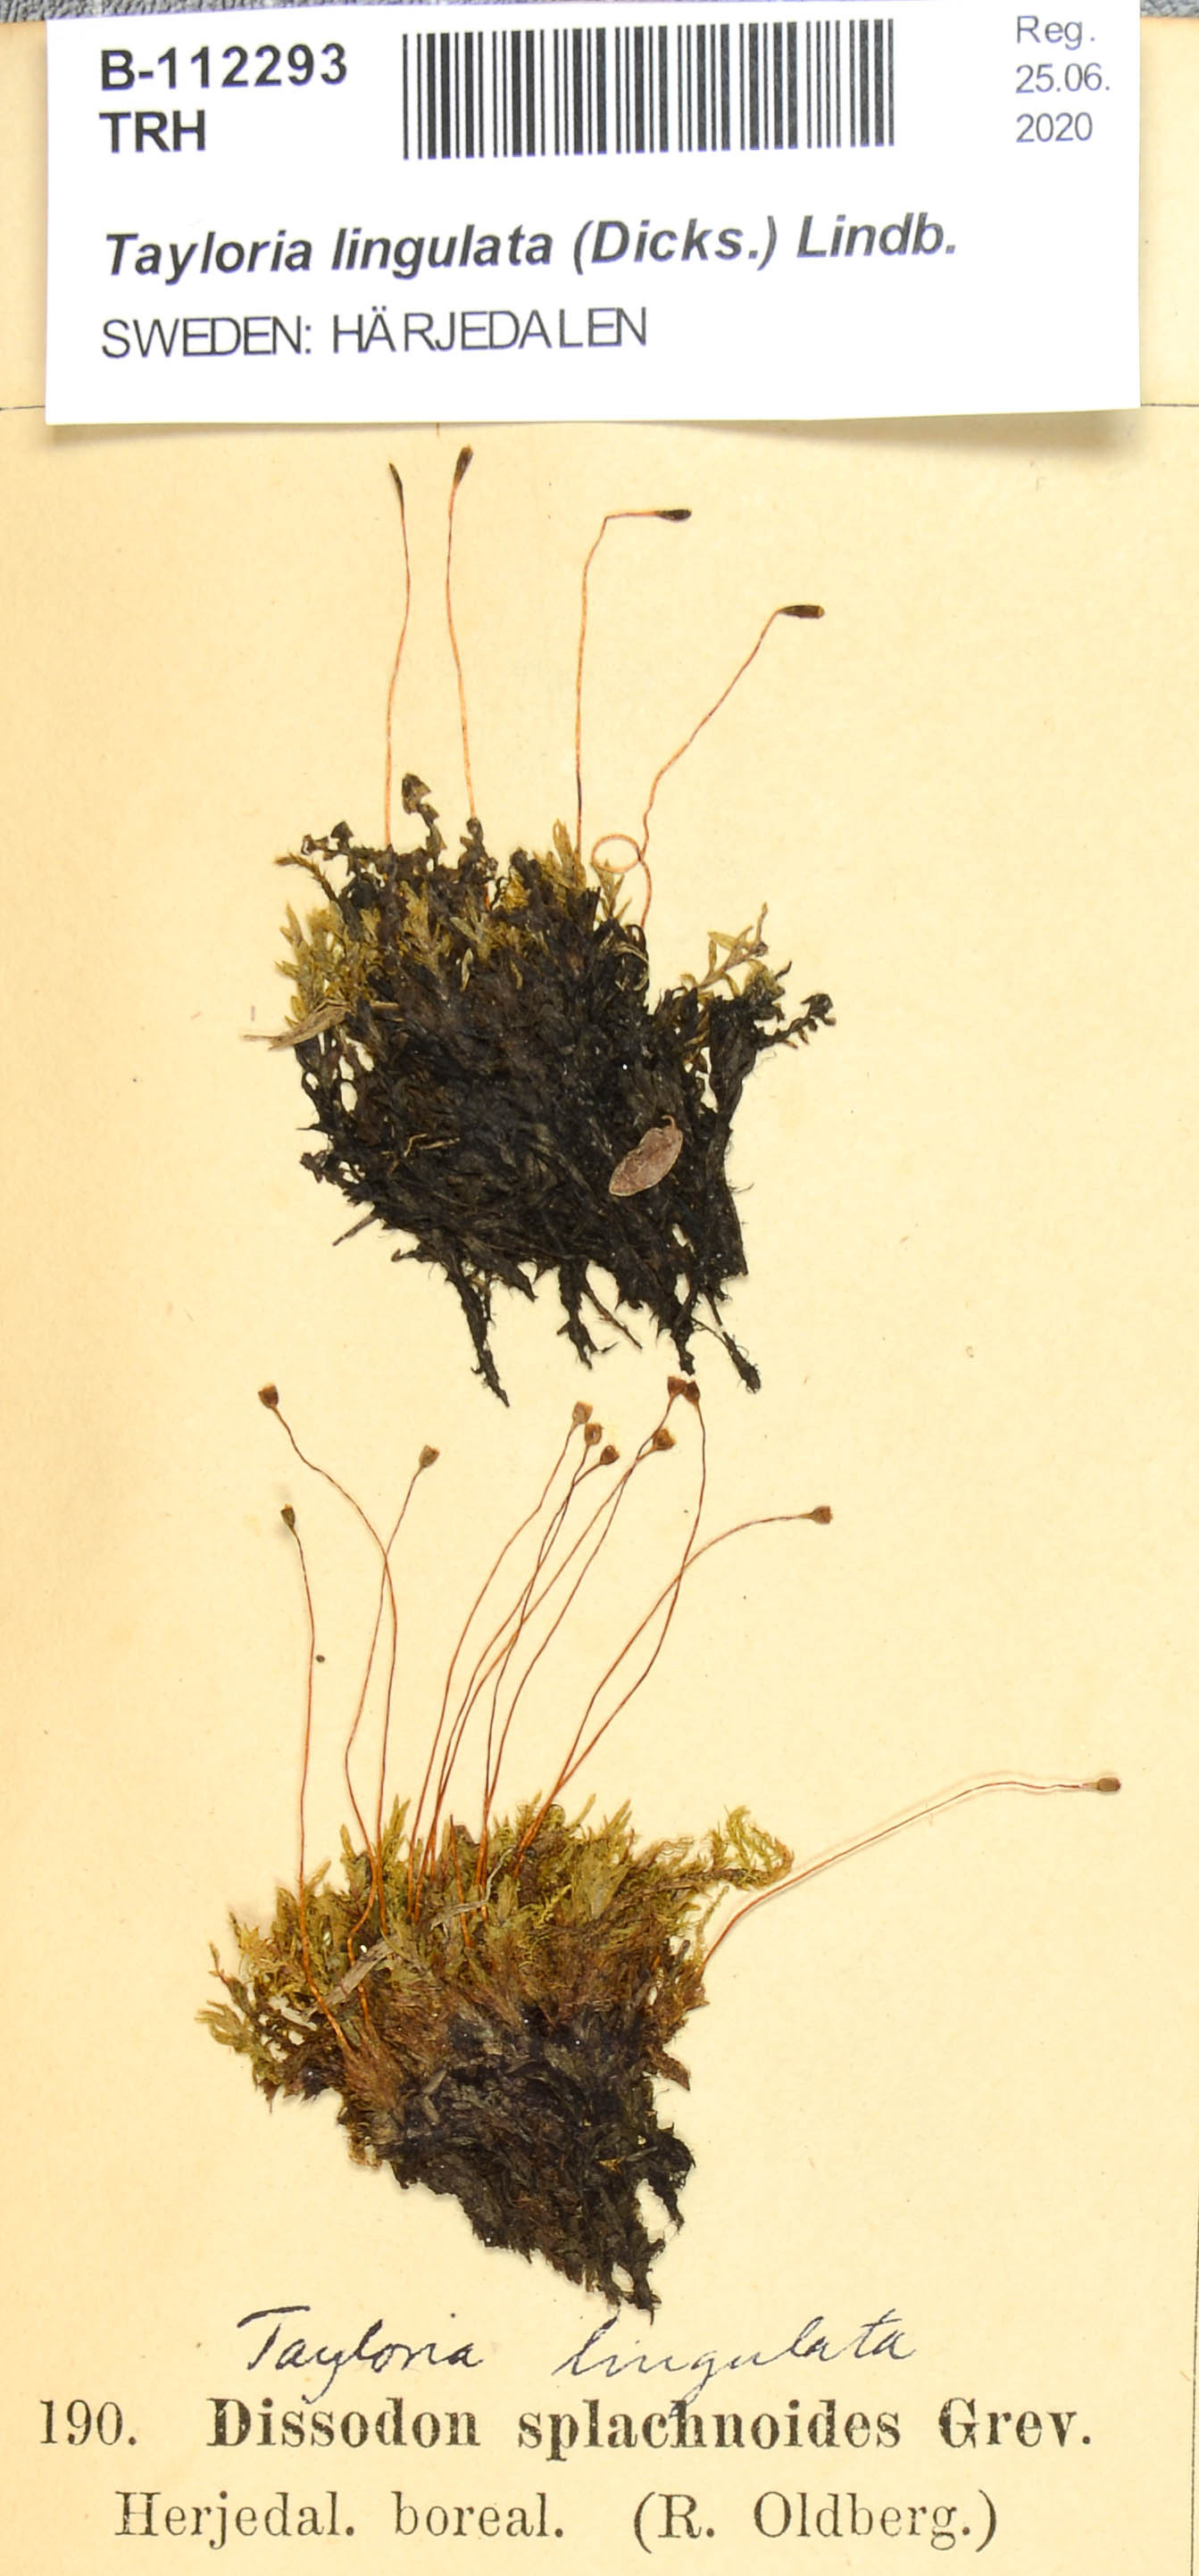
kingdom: Plantae
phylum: Bryophyta
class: Bryopsida
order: Splachnales
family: Splachnaceae
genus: Tayloria
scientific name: Tayloria lingulata
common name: Tongue-leaved trumpet moss
